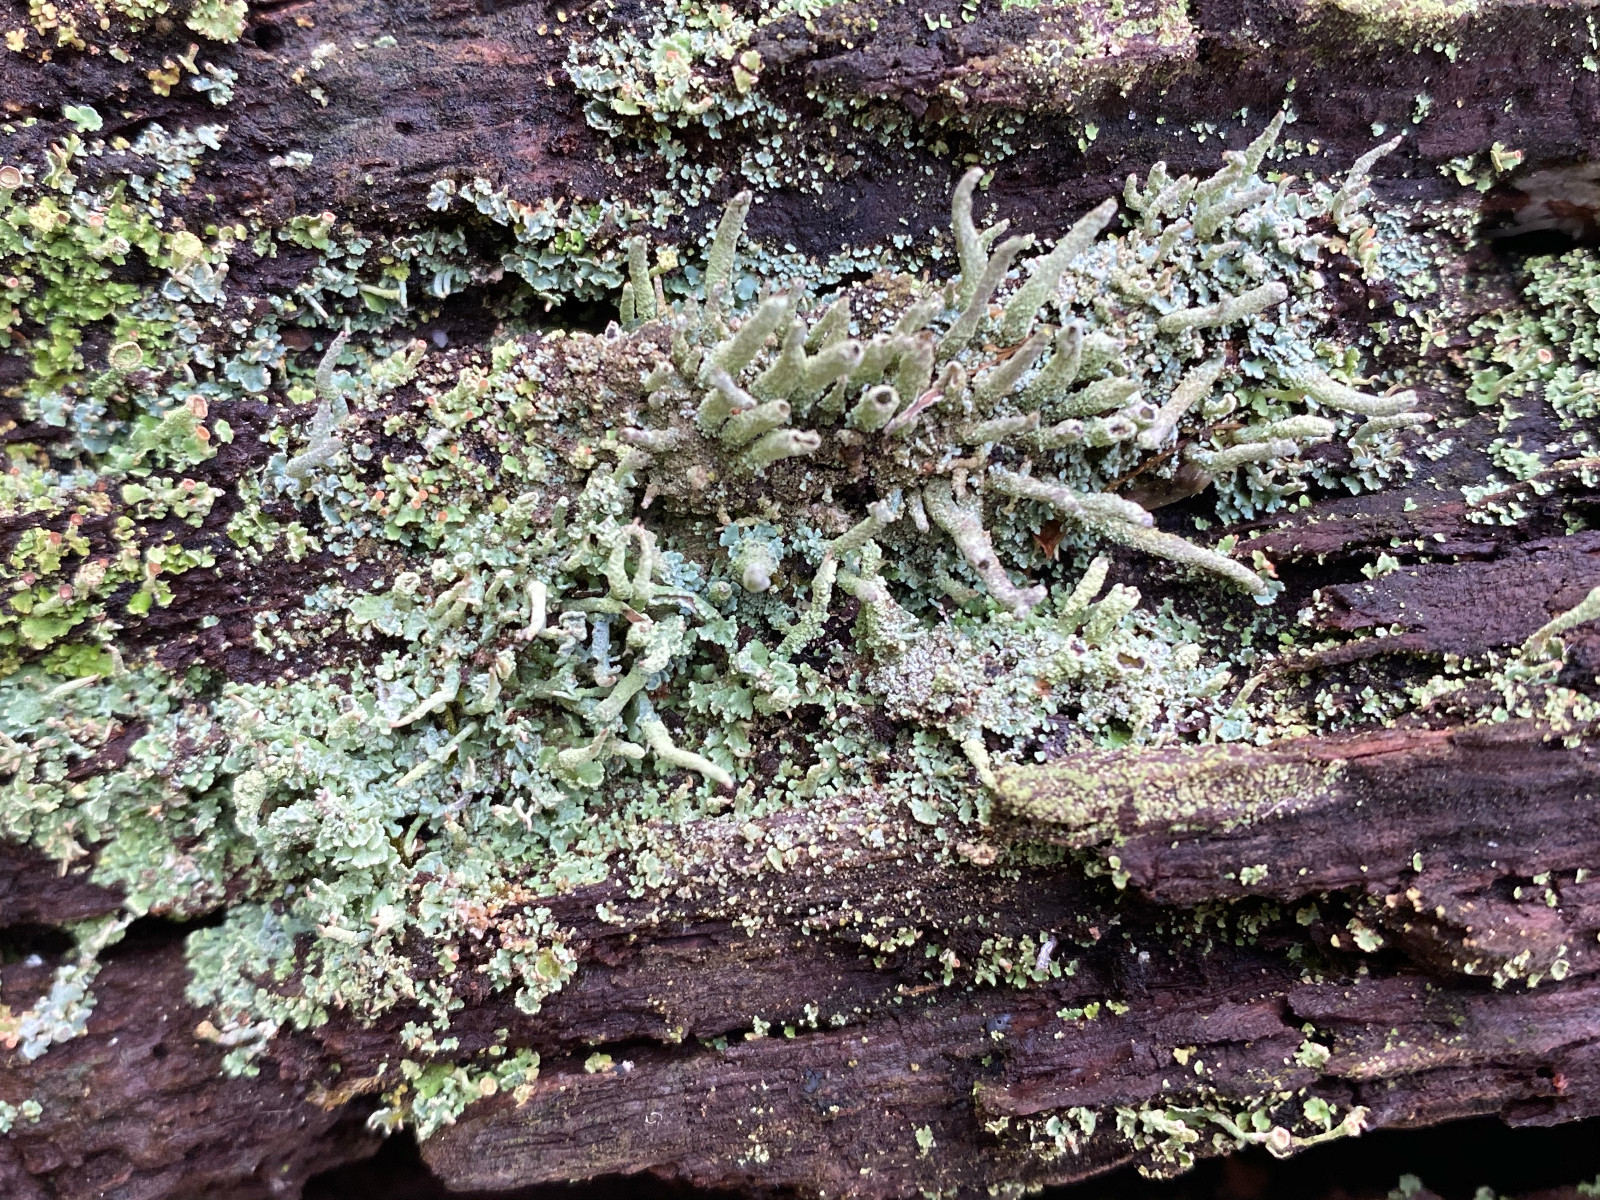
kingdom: Fungi
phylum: Ascomycota
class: Lecanoromycetes
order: Lecanorales
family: Cladoniaceae
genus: Cladonia
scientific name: Cladonia ochrochlora
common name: stød-bægerlav
